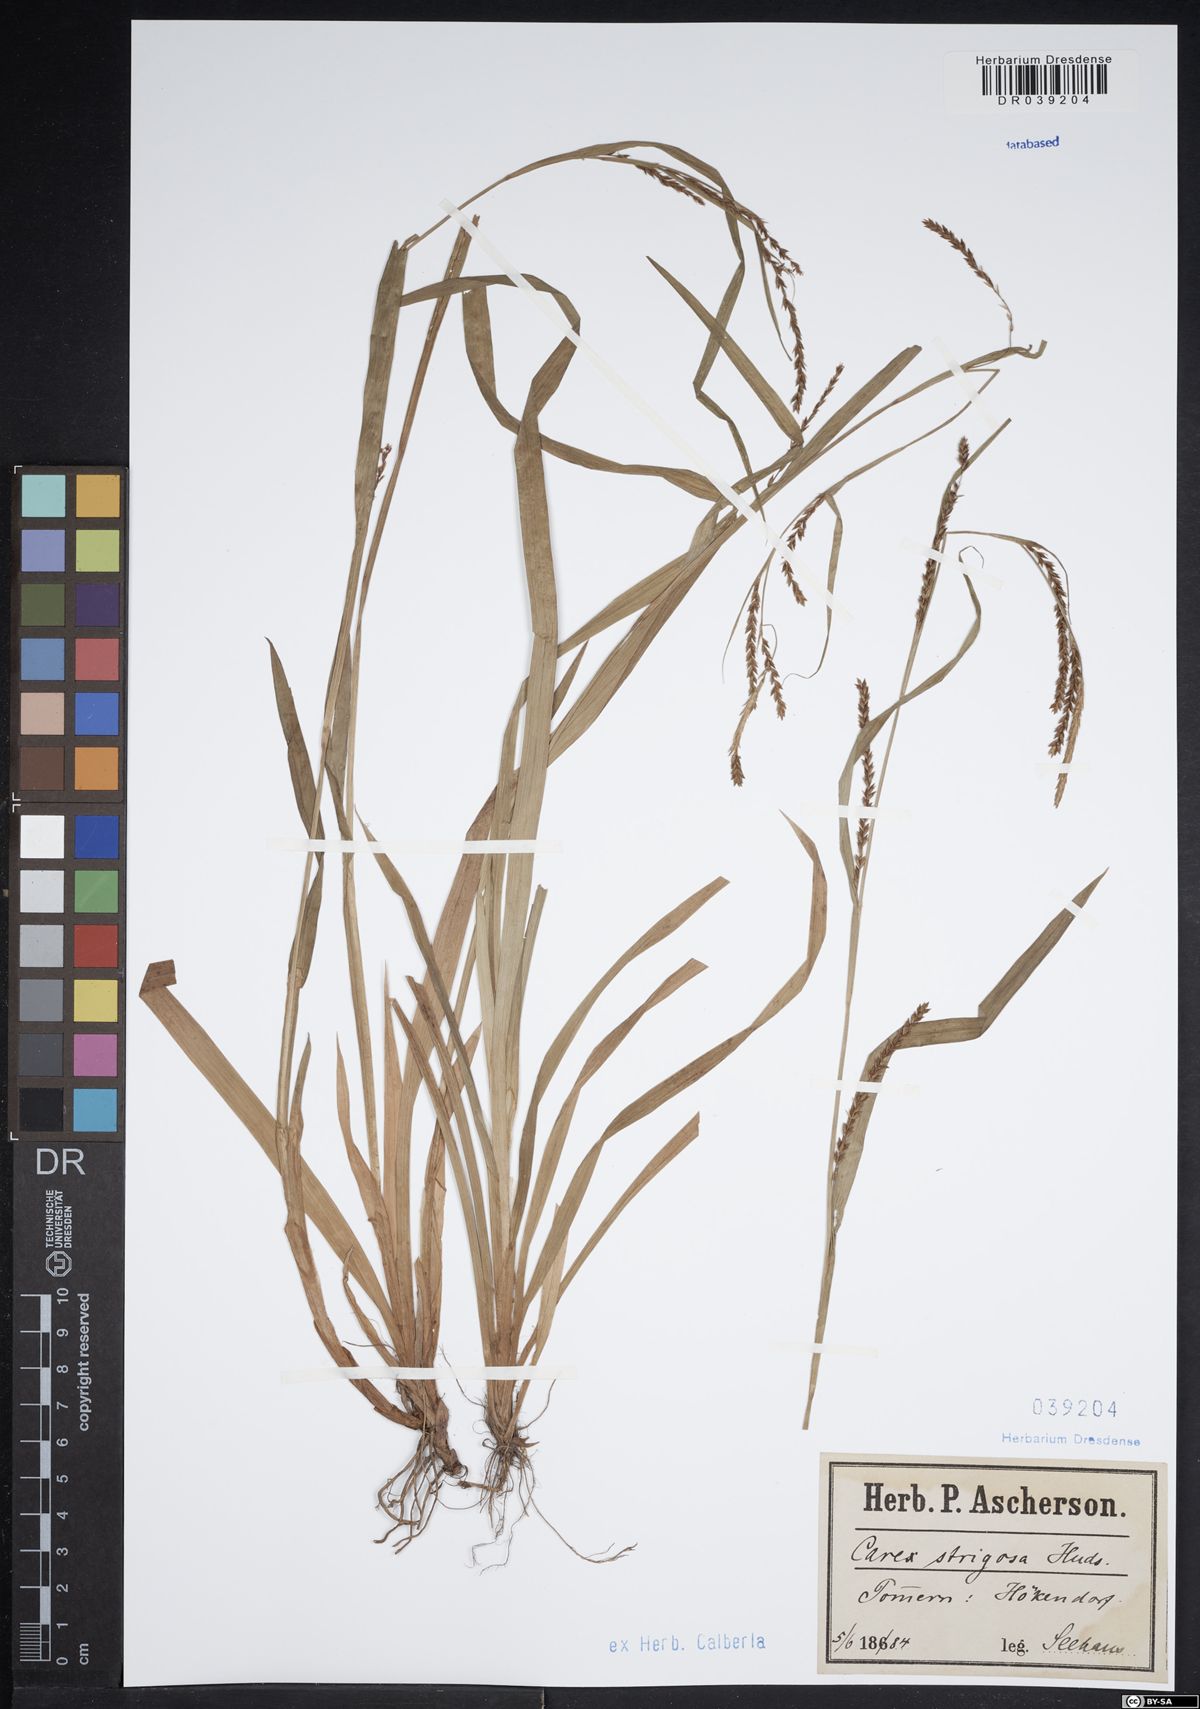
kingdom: Plantae
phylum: Tracheophyta
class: Liliopsida
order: Poales
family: Cyperaceae
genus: Carex
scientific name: Carex strigosa
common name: Thin-spiked wood-sedge
